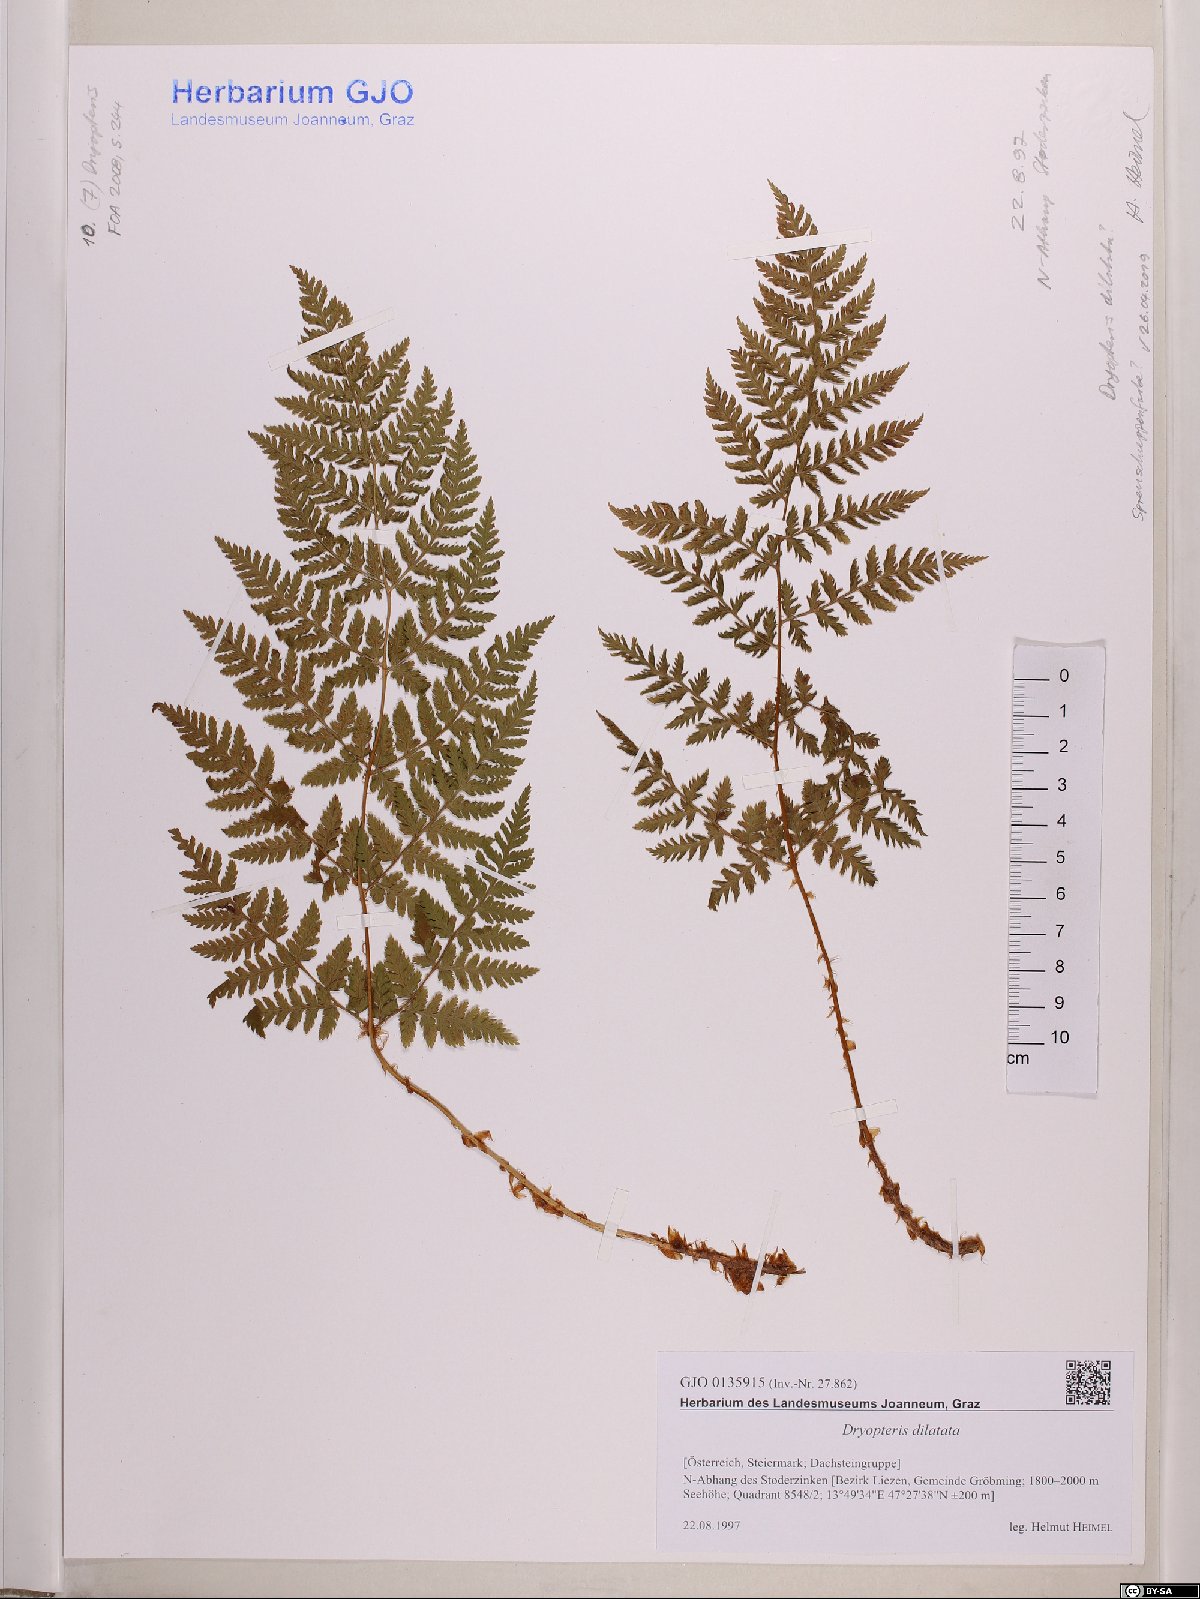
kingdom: Plantae
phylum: Tracheophyta
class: Polypodiopsida
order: Polypodiales
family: Dryopteridaceae
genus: Dryopteris
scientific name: Dryopteris dilatata
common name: Broad buckler-fern
